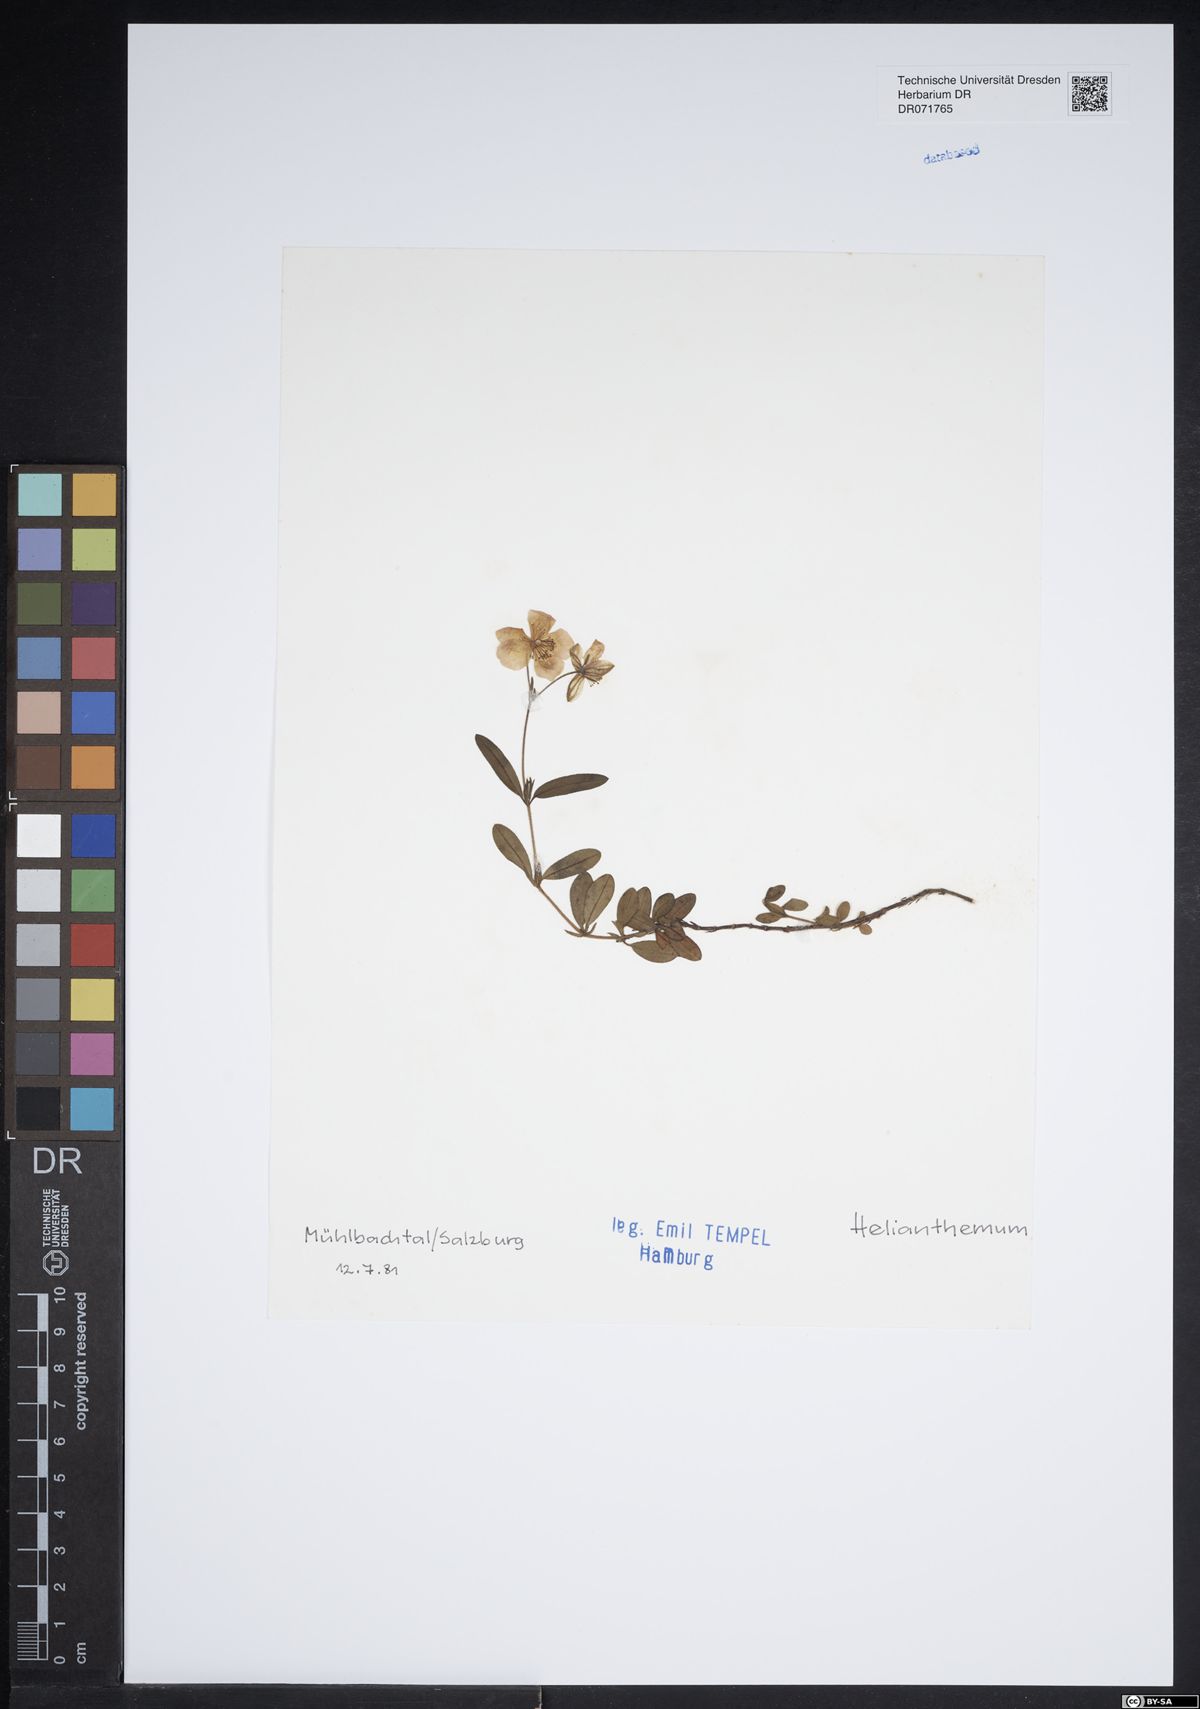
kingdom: Plantae
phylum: Tracheophyta
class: Magnoliopsida
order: Malvales
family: Cistaceae
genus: Helianthemum
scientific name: Helianthemum
